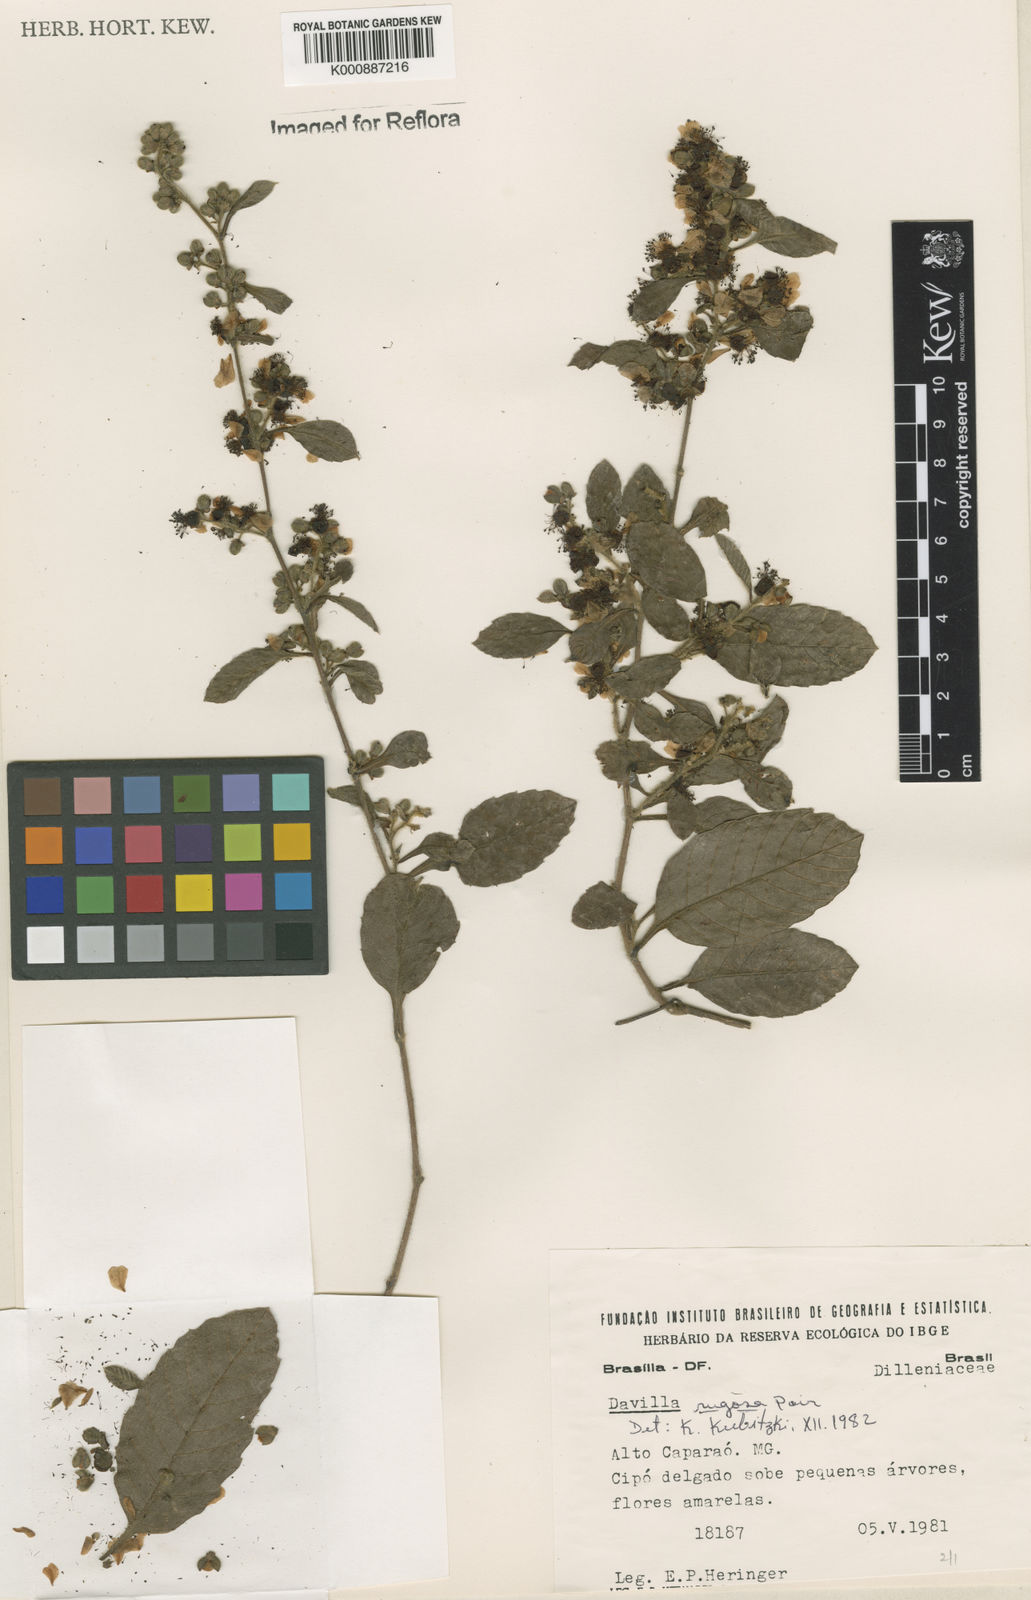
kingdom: Plantae
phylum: Tracheophyta
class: Magnoliopsida
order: Dilleniales
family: Dilleniaceae
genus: Davilla
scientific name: Davilla rugosa
